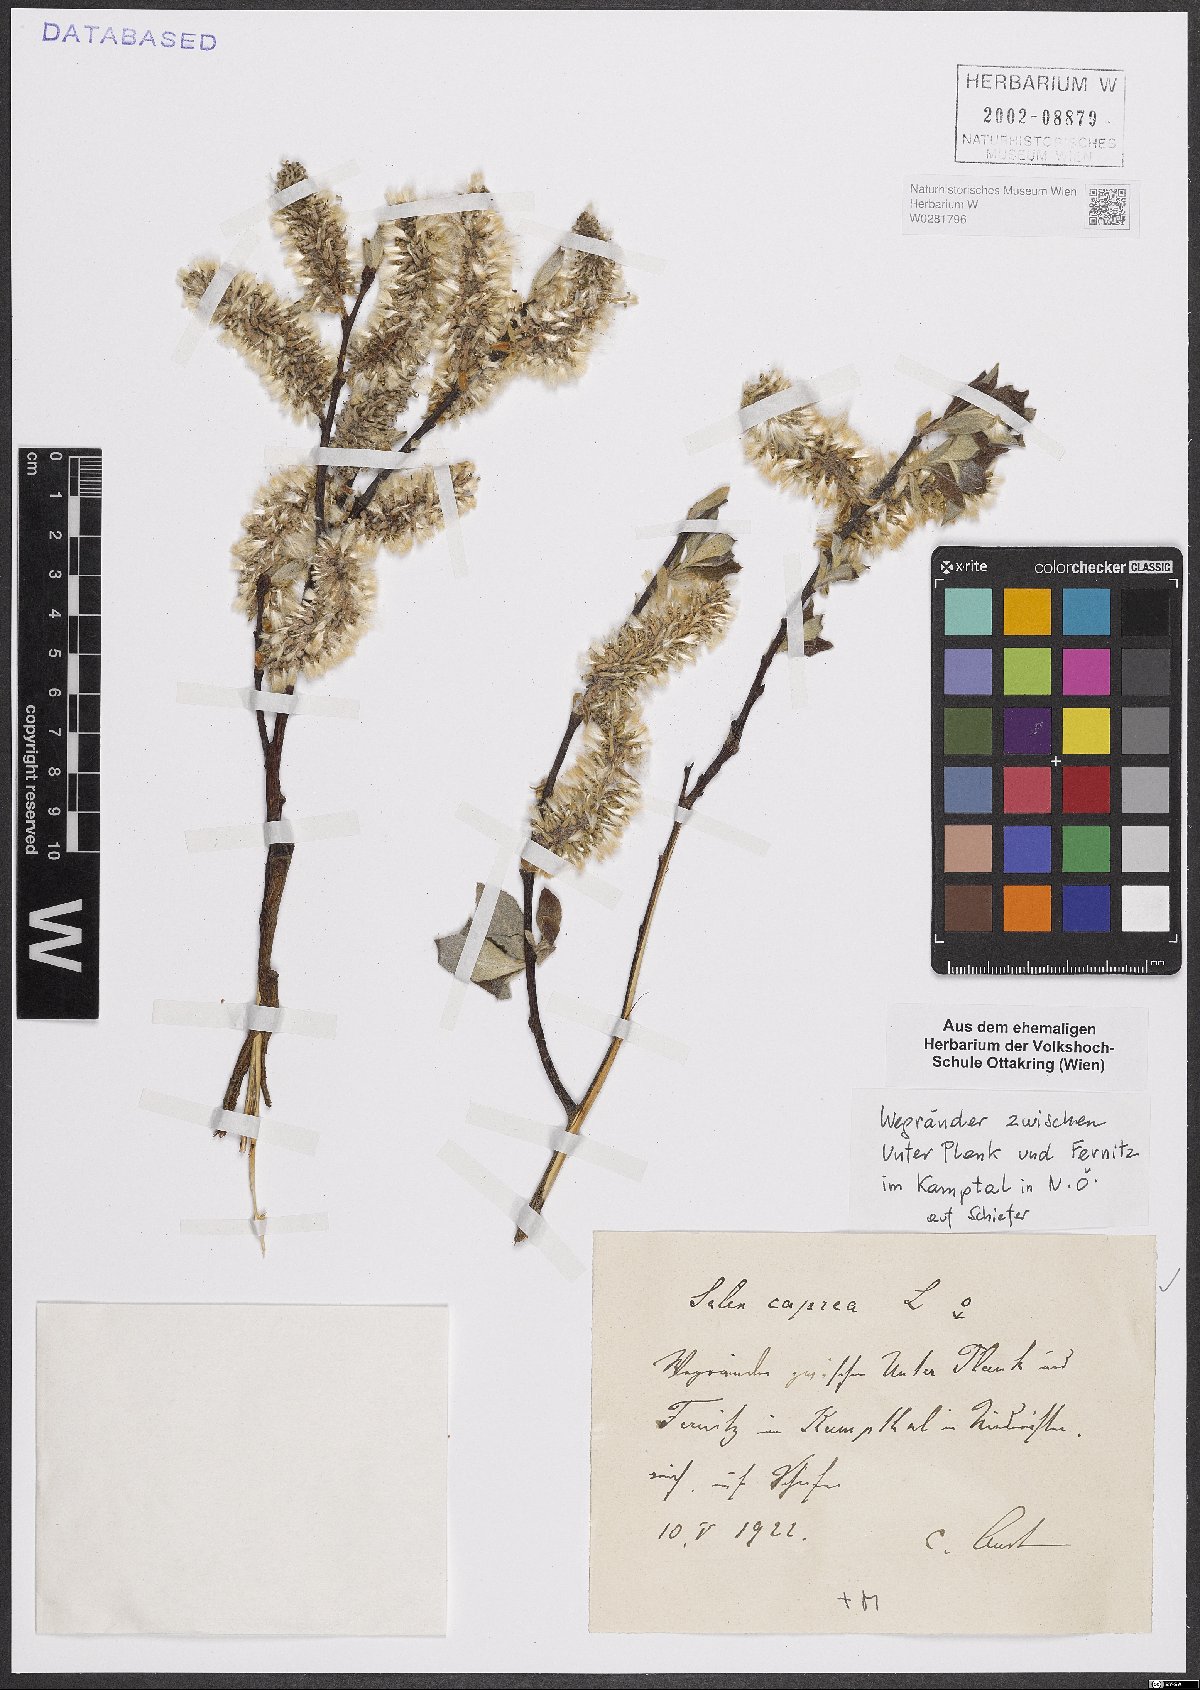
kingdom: Plantae
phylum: Tracheophyta
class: Magnoliopsida
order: Malpighiales
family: Salicaceae
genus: Salix
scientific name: Salix caprea
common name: Goat willow
